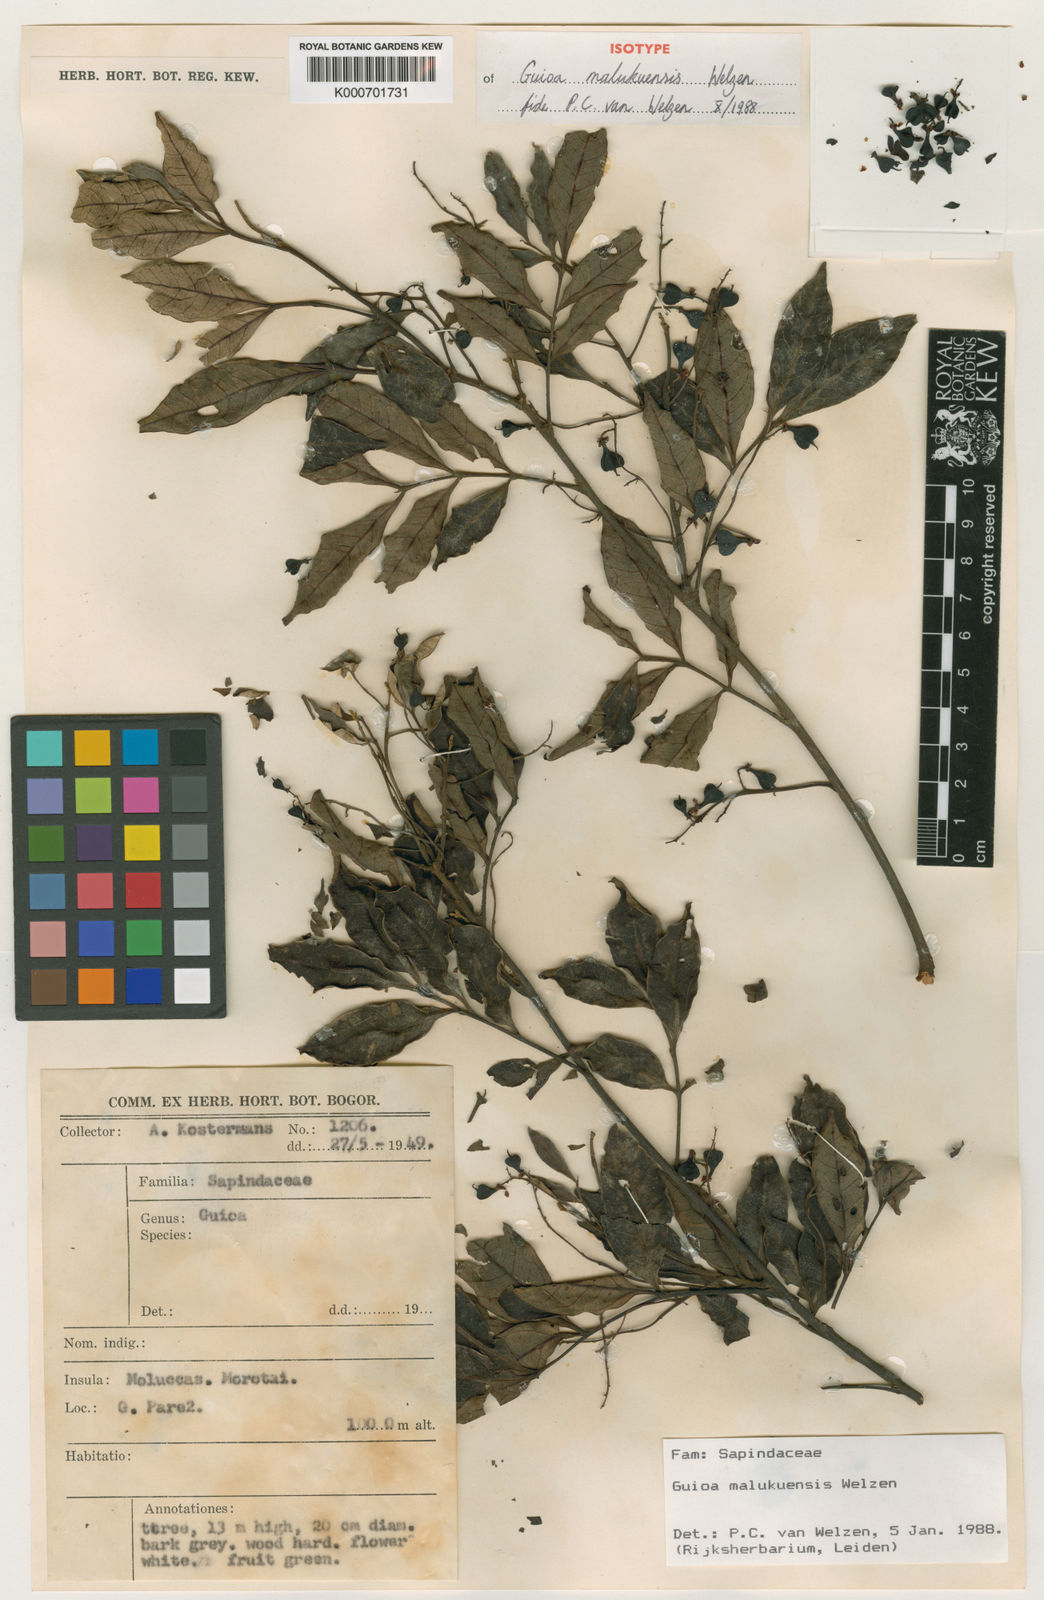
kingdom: Plantae
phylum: Tracheophyta
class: Magnoliopsida
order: Sapindales
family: Sapindaceae
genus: Guioa
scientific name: Guioa malukuensis
